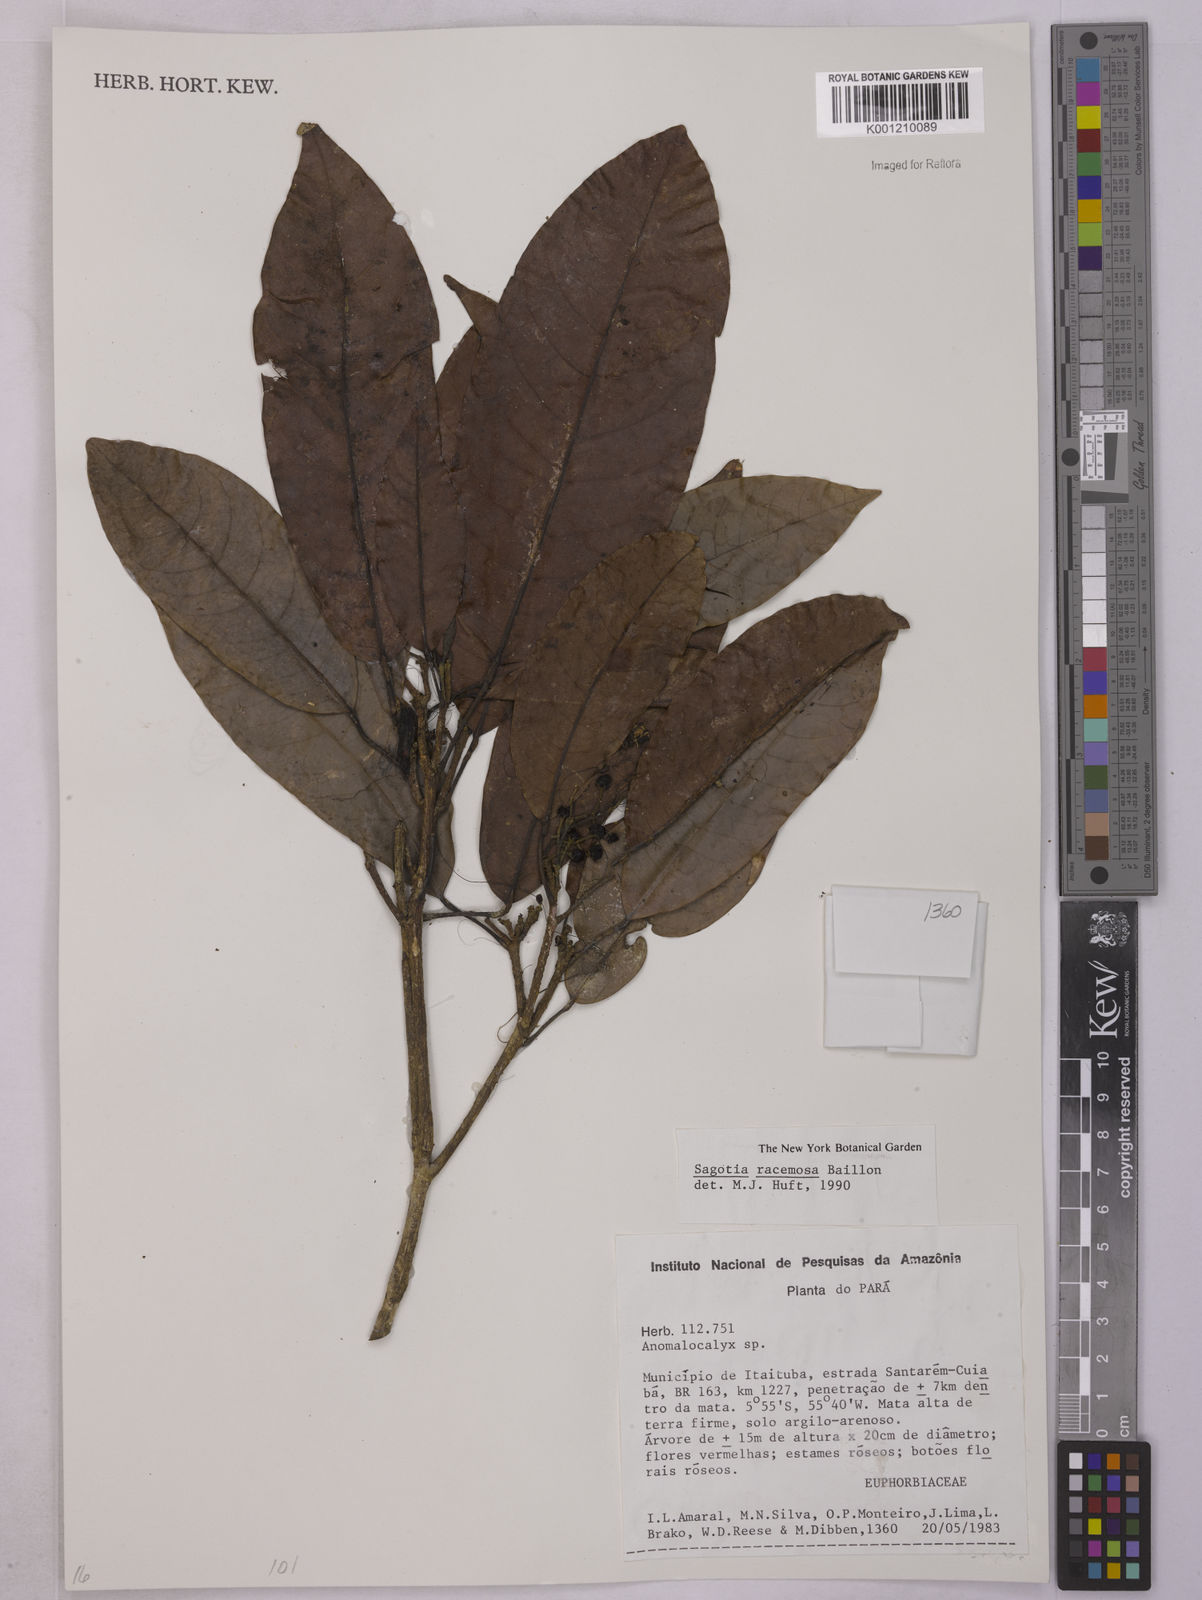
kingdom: Plantae
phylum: Tracheophyta
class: Magnoliopsida
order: Malpighiales
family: Euphorbiaceae
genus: Sagotia
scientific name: Sagotia racemosa
